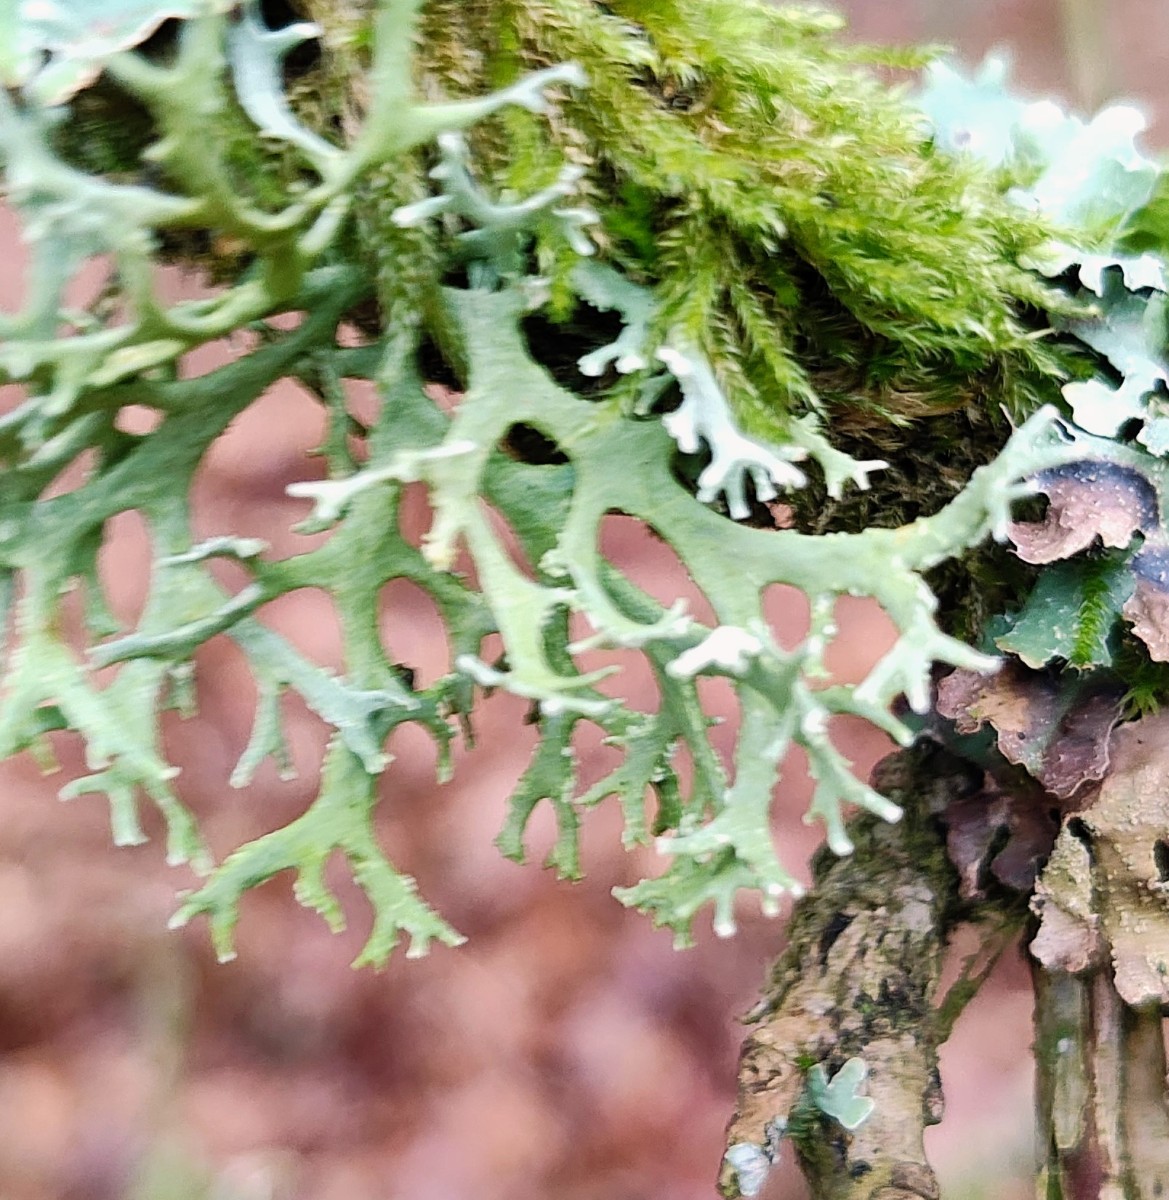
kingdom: Fungi
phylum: Ascomycota
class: Lecanoromycetes
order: Lecanorales
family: Parmeliaceae
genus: Evernia
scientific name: Evernia prunastri
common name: almindelig slåenlav
